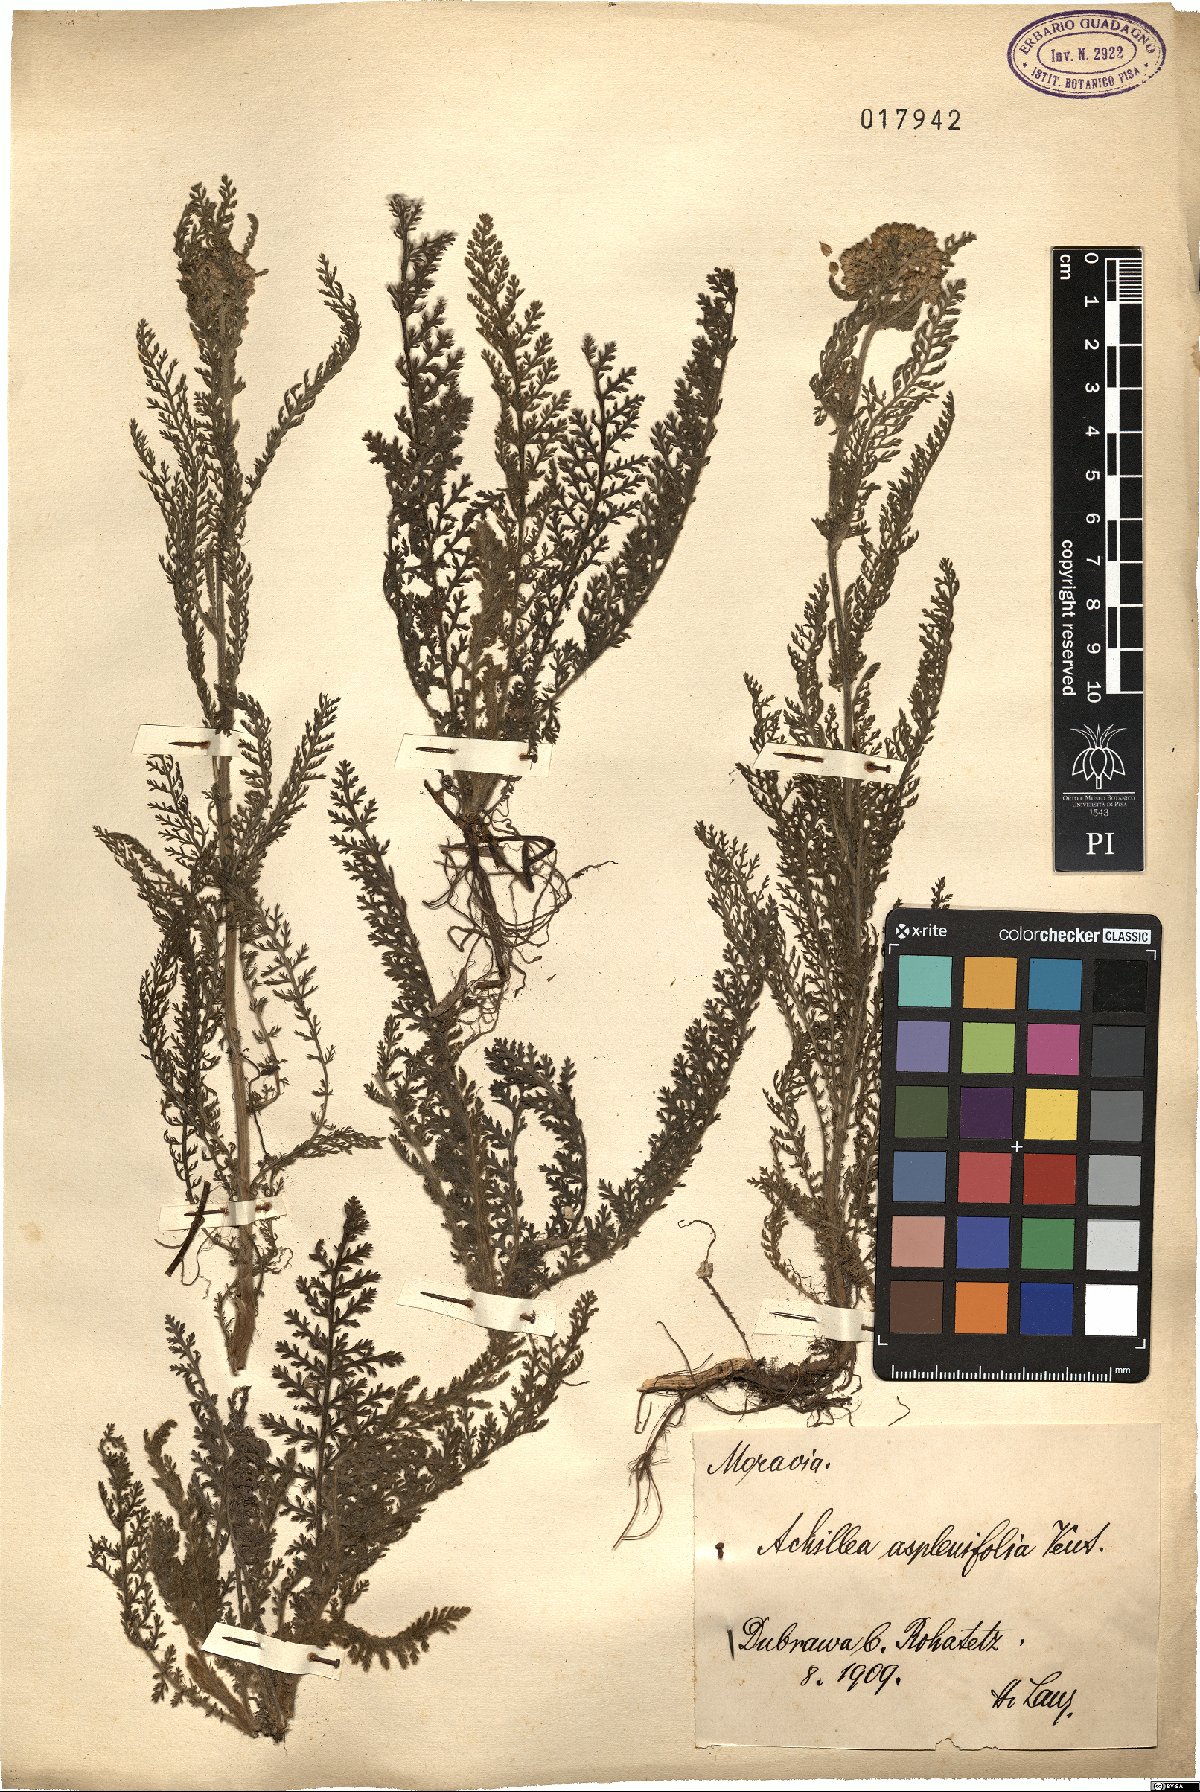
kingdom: Plantae
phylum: Tracheophyta
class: Magnoliopsida
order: Asterales
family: Asteraceae
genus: Achillea
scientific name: Achillea aspleniifolia
